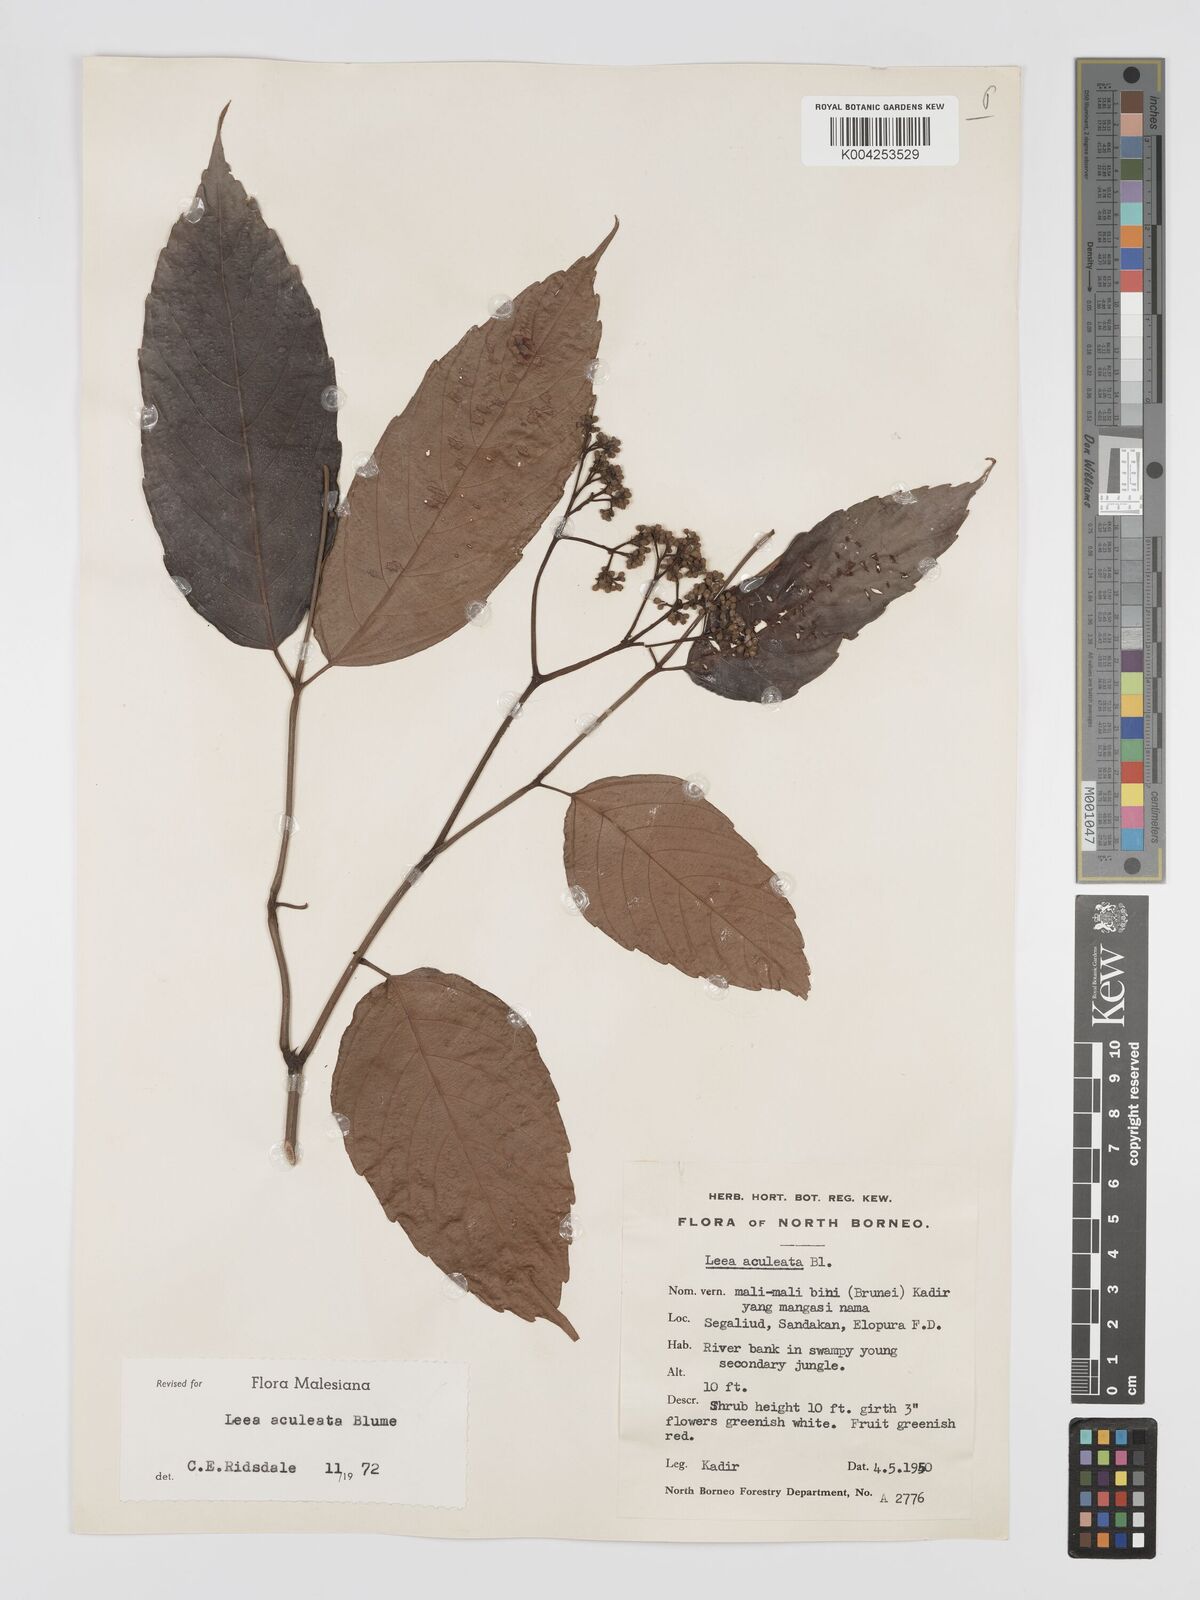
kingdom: Plantae
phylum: Tracheophyta
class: Magnoliopsida
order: Vitales
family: Vitaceae
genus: Leea
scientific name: Leea aculeata
